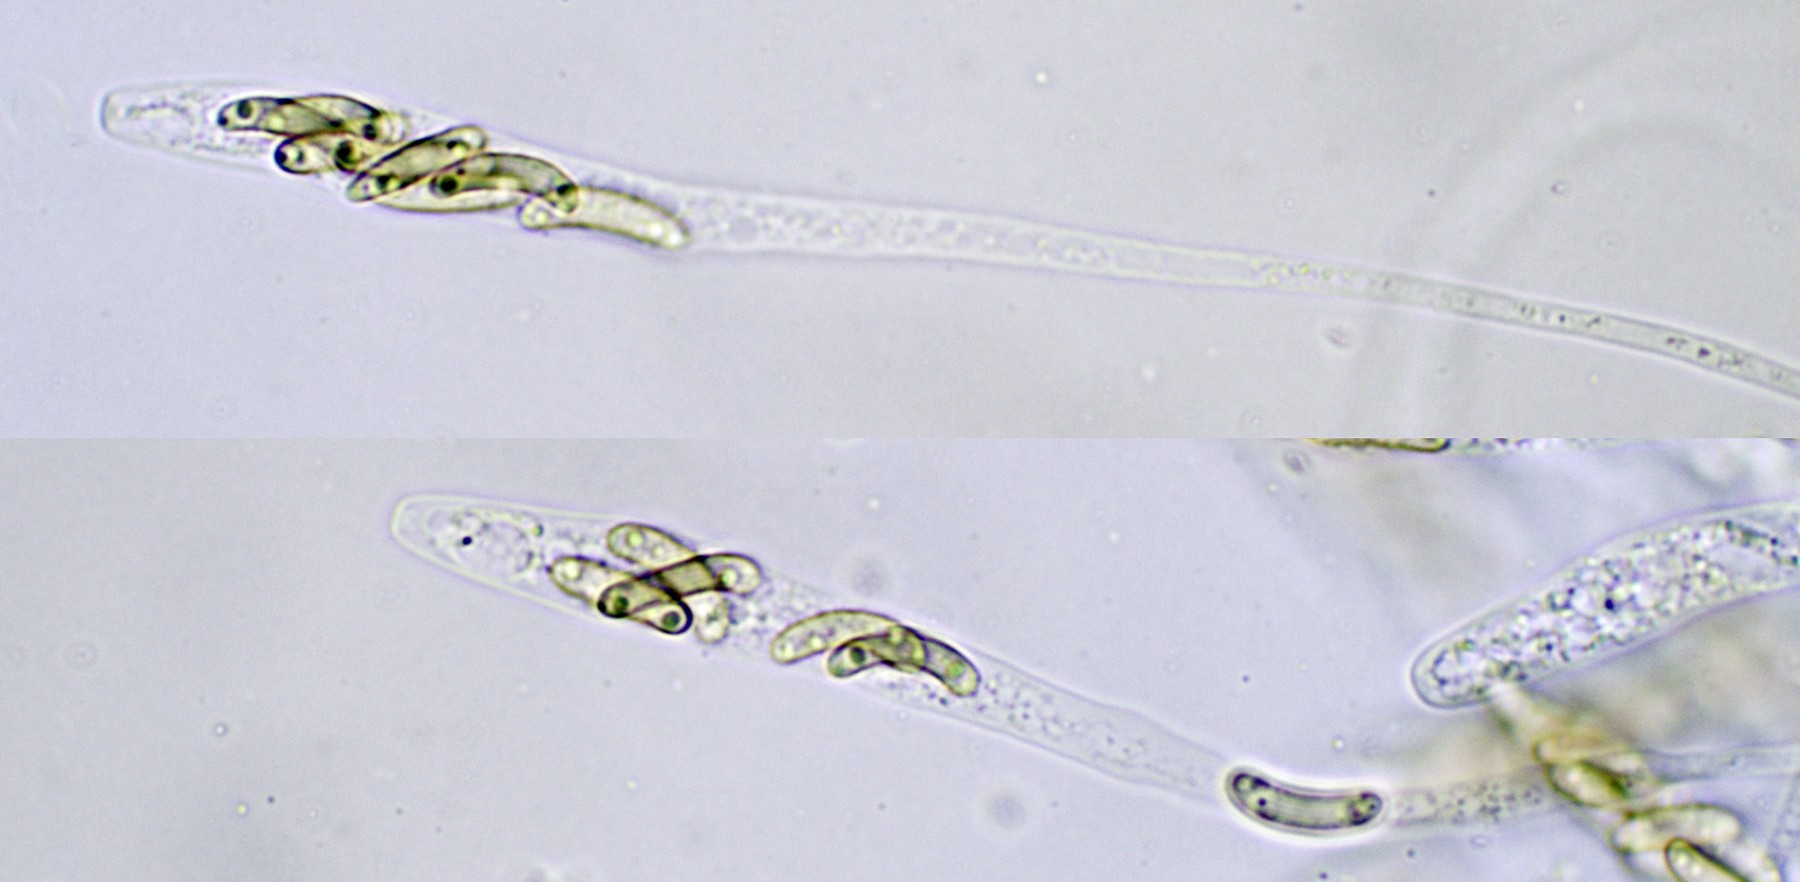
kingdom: Fungi
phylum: Ascomycota
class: Sordariomycetes
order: Xylariales
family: Diatrypaceae
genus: Eutypa
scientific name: Eutypa lata
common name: almindelig kulskorpe
